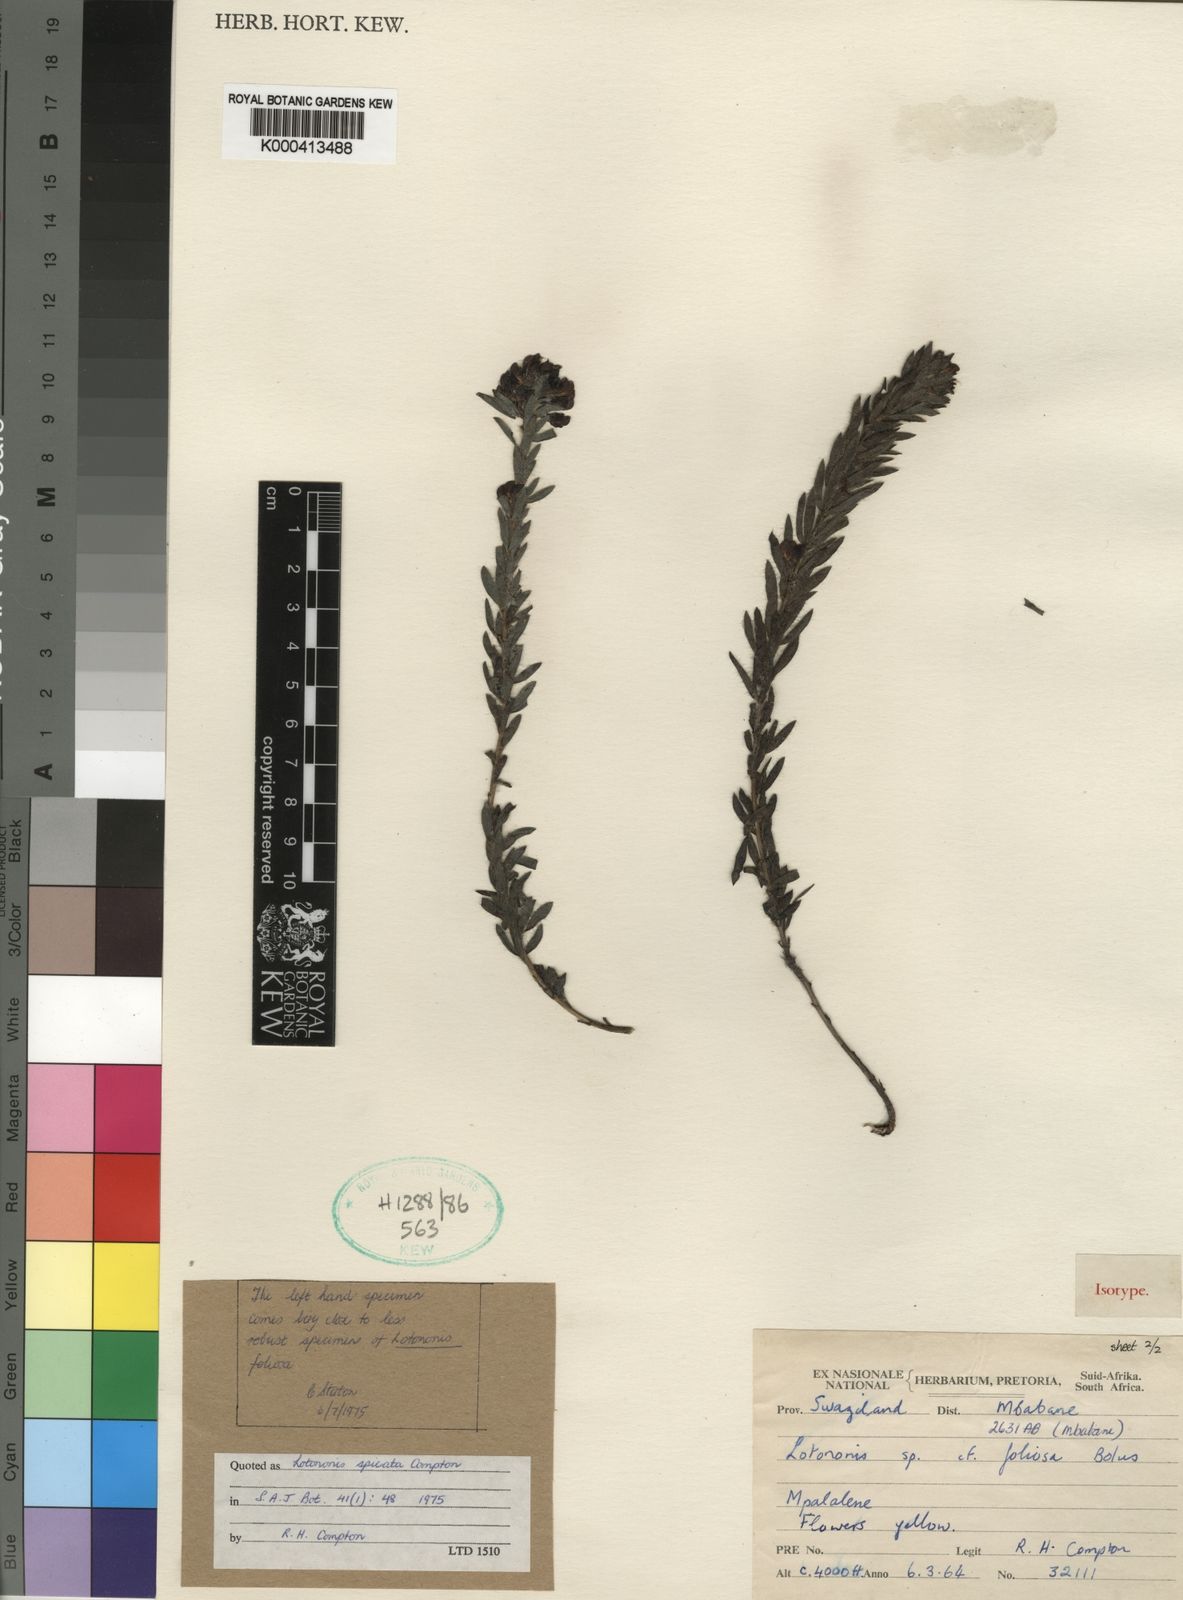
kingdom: Plantae
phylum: Tracheophyta
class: Magnoliopsida
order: Fabales
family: Fabaceae
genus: Leobordea
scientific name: Leobordea spicata
